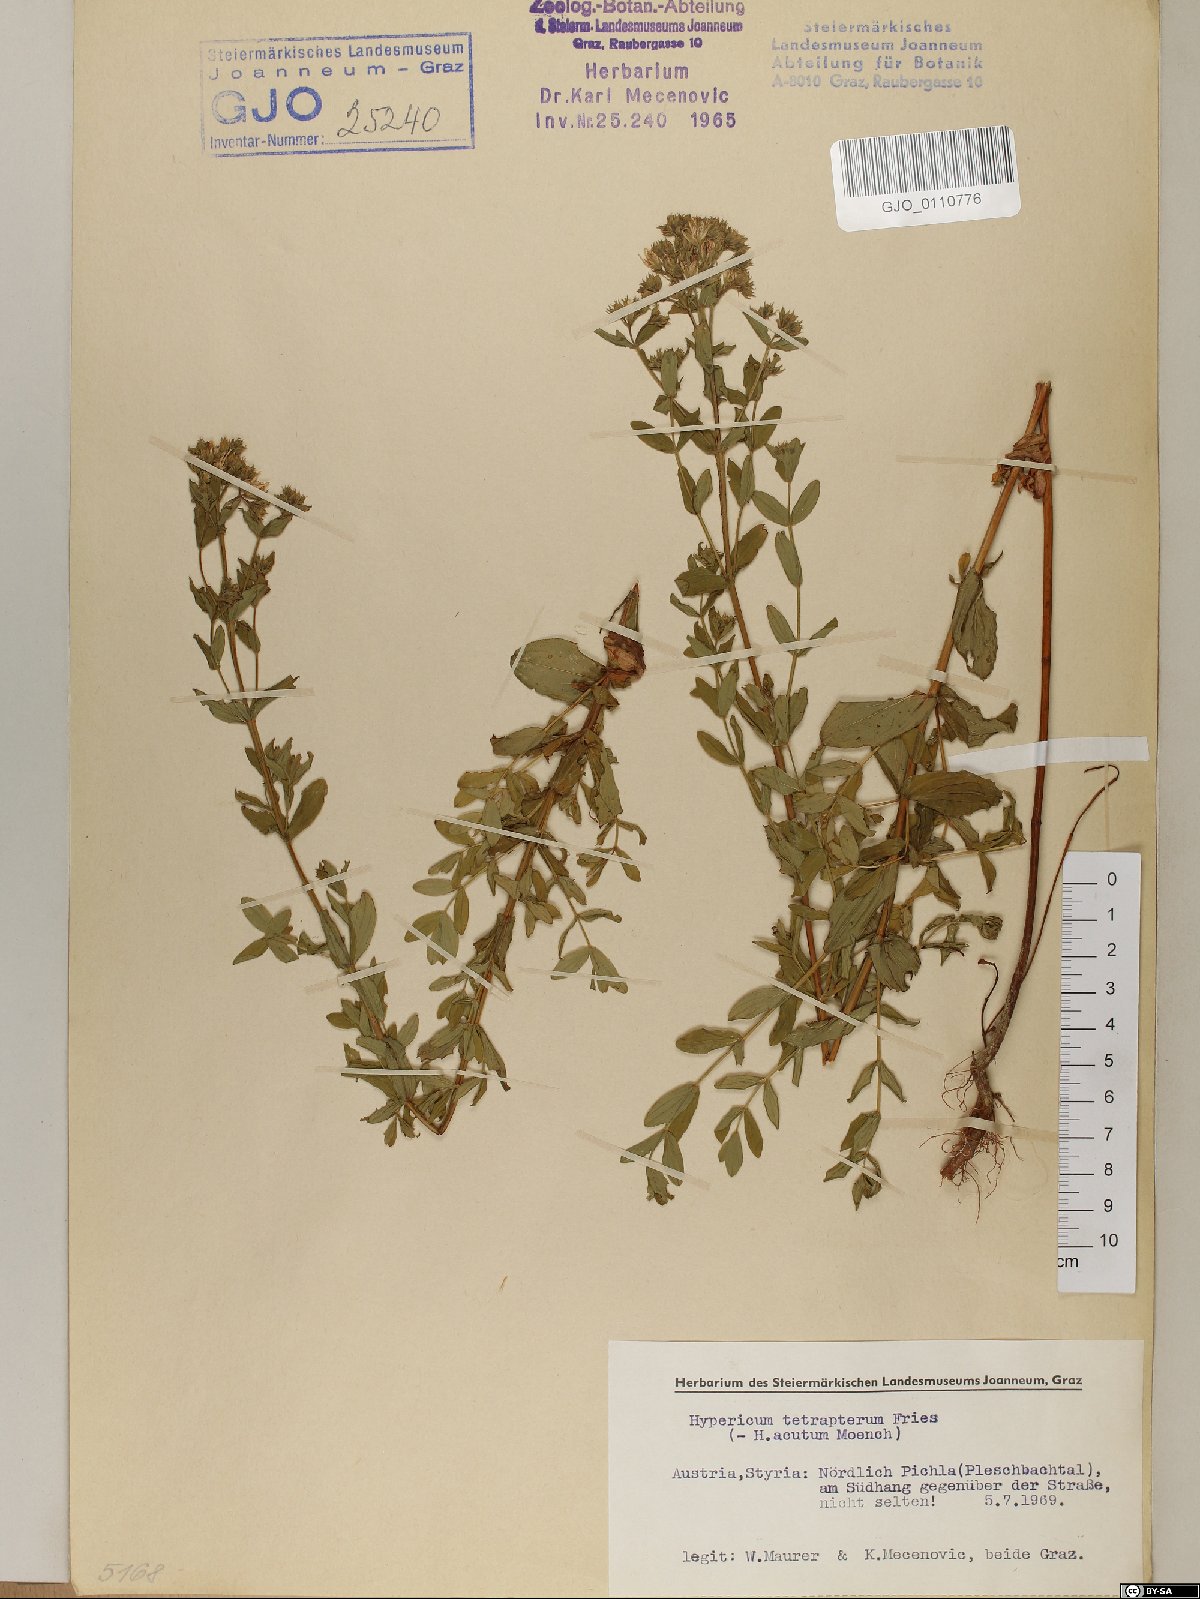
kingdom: Plantae
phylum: Tracheophyta
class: Magnoliopsida
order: Malpighiales
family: Hypericaceae
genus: Hypericum
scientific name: Hypericum tetrapterum
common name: Square-stalked st. john's-wort
